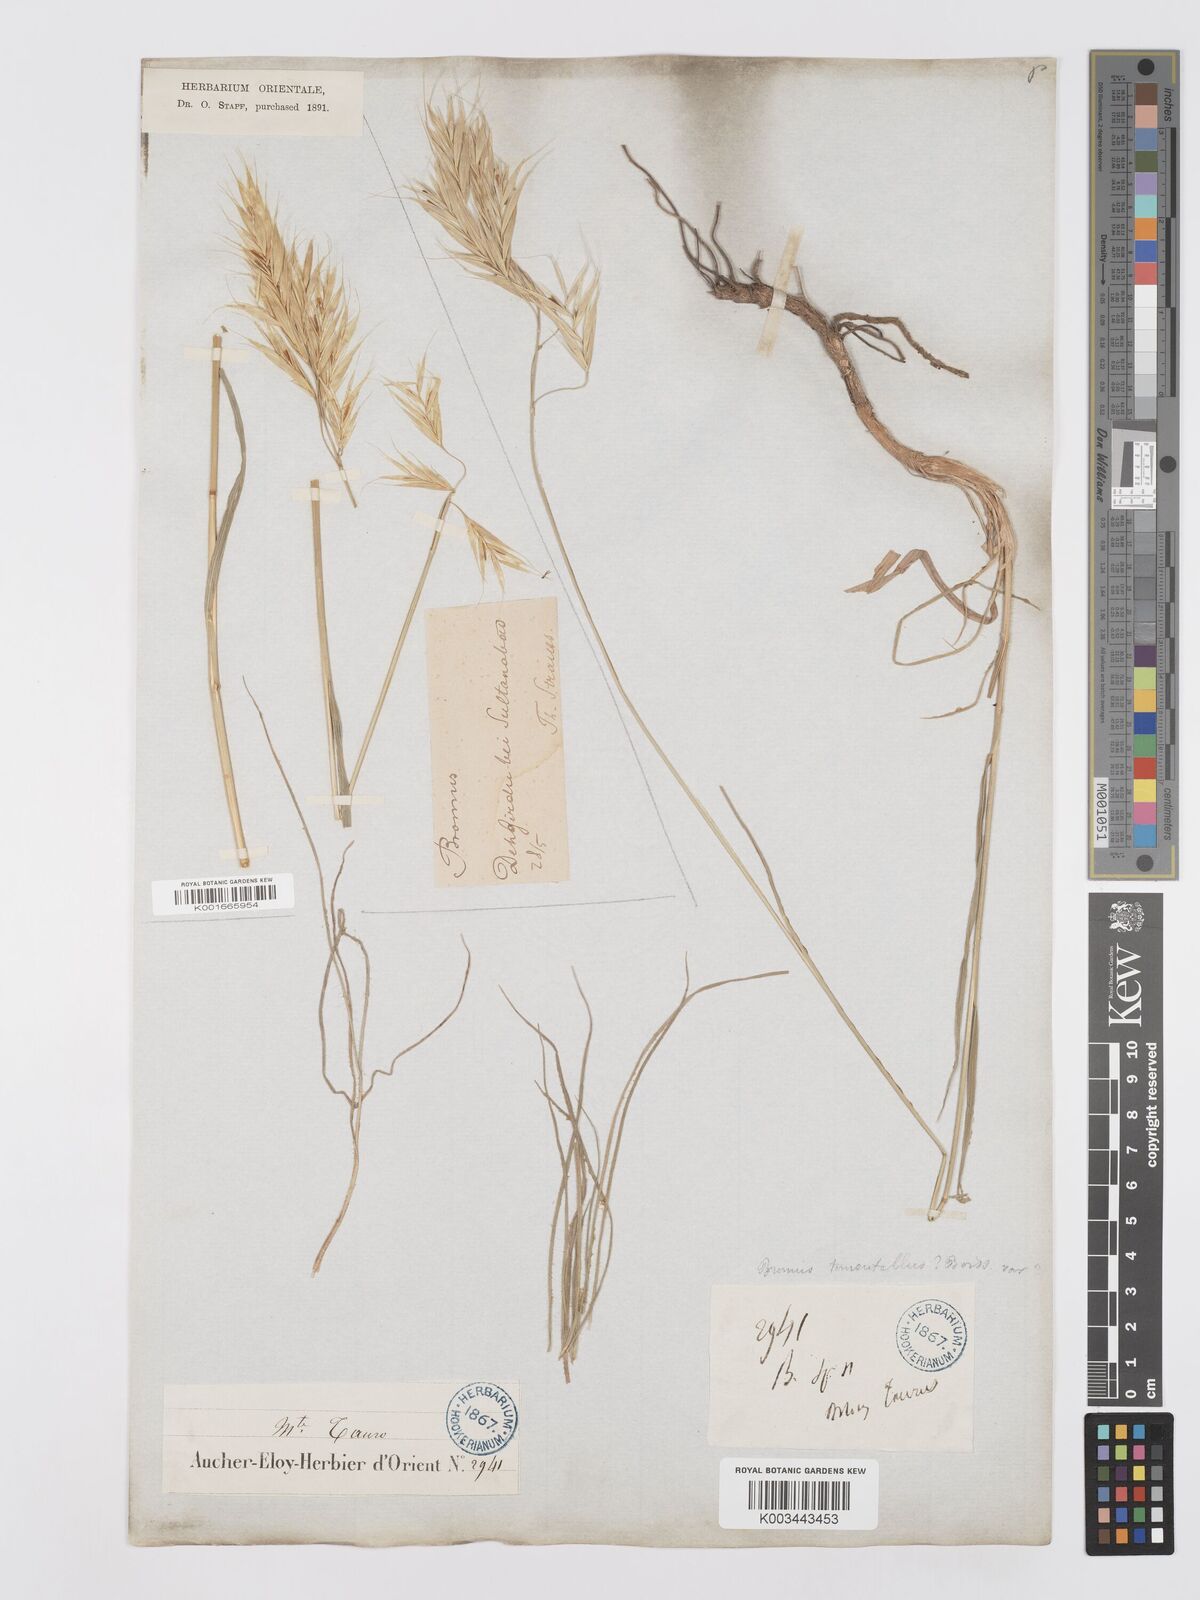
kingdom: Plantae
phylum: Tracheophyta
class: Liliopsida
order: Poales
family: Poaceae
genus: Bromus
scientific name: Bromus tomentellus
